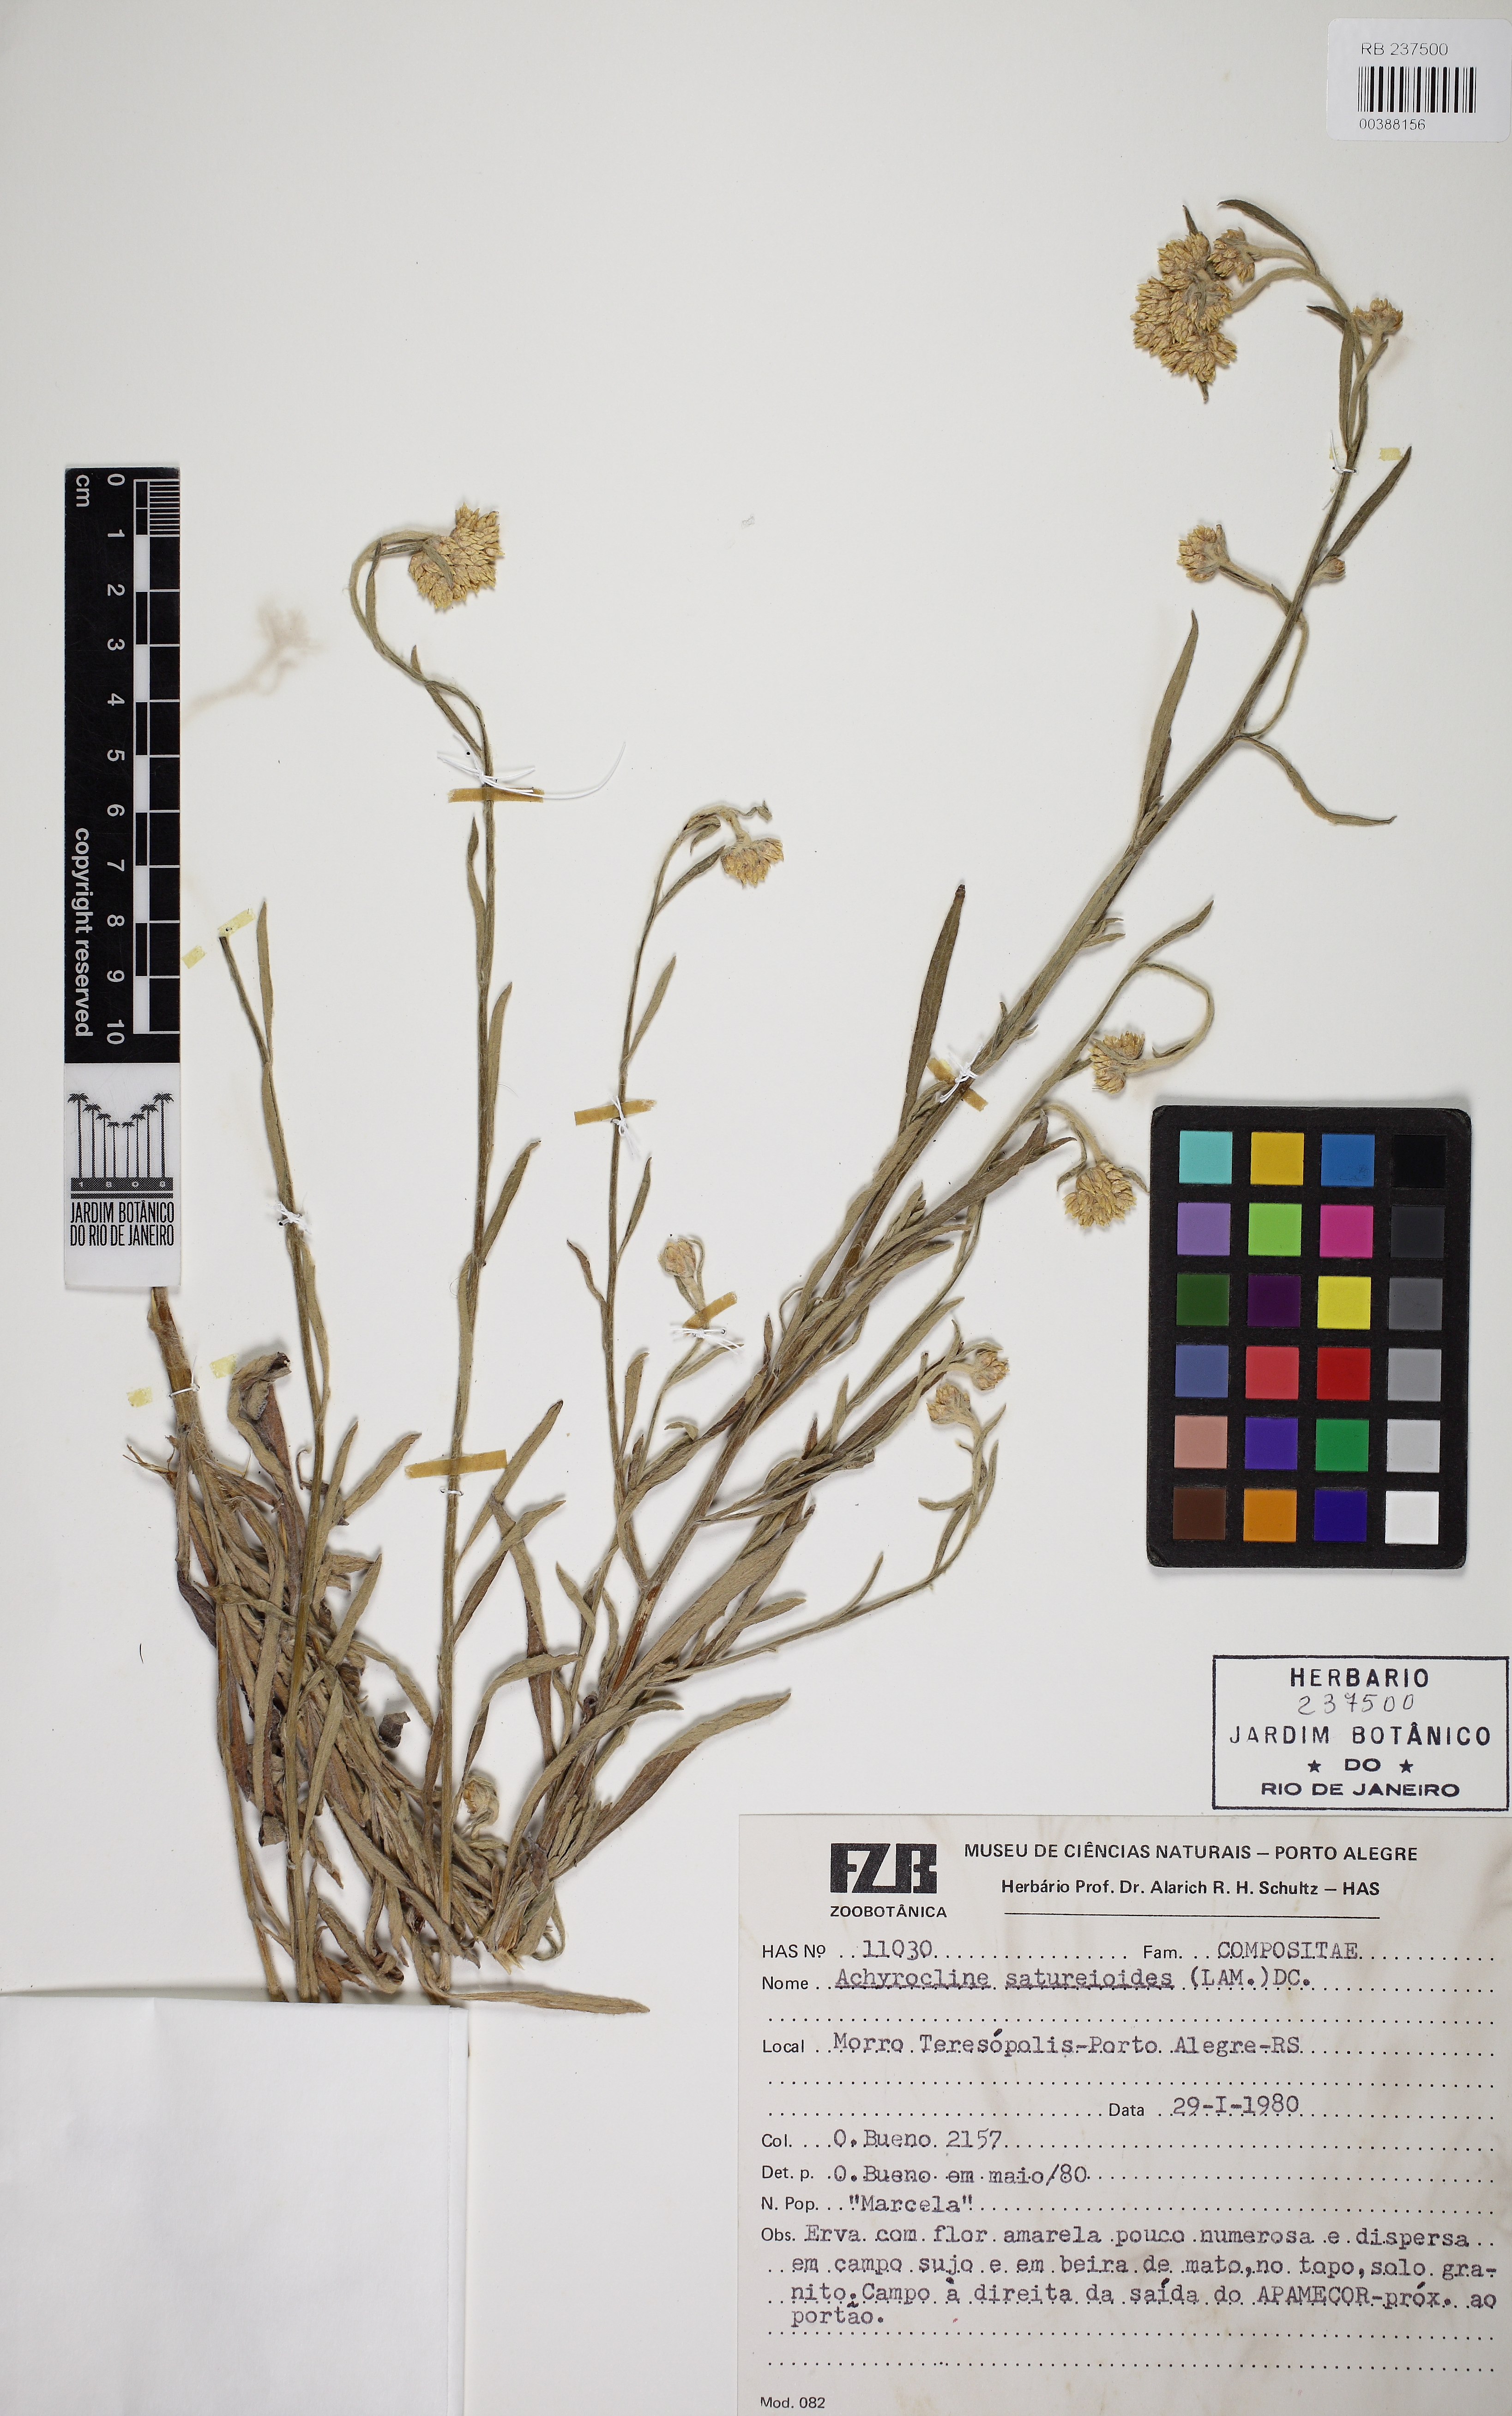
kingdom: Plantae
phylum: Tracheophyta
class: Magnoliopsida
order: Asterales
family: Asteraceae
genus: Achyrocline
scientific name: Achyrocline satureioides
